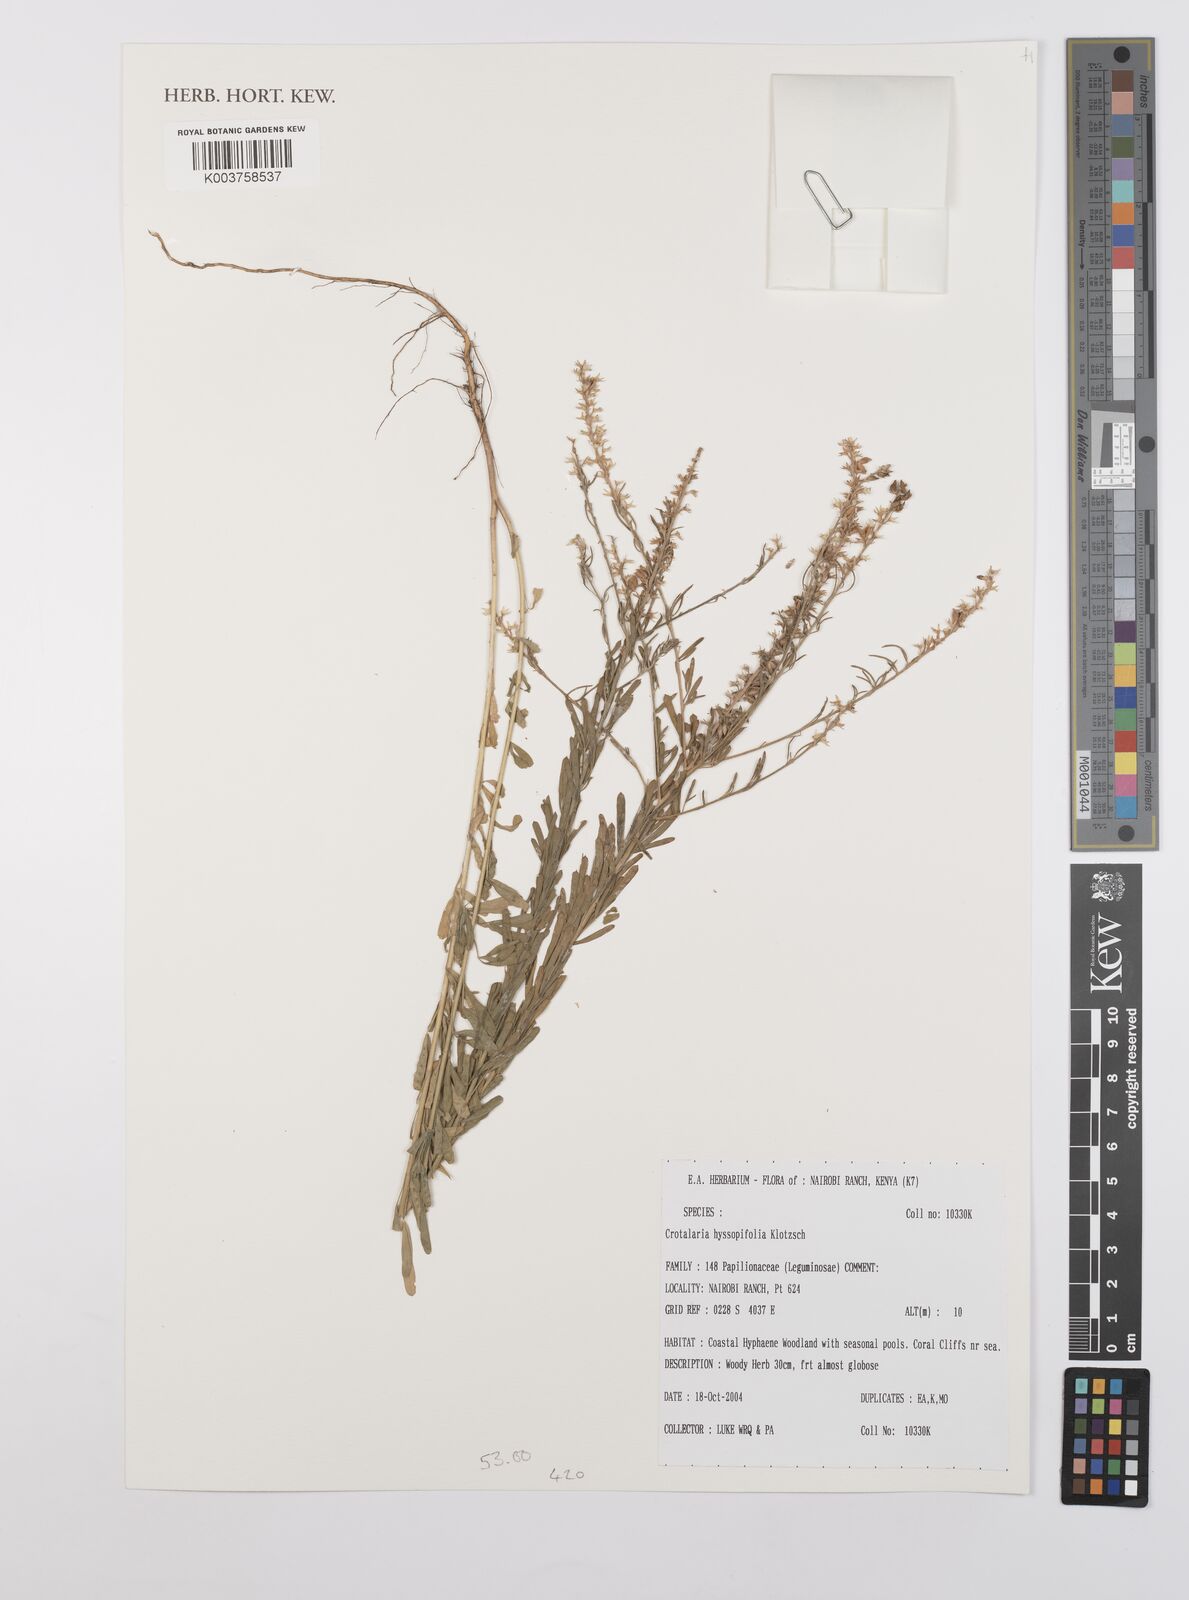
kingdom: Plantae
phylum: Tracheophyta
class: Magnoliopsida
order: Fabales
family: Fabaceae
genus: Crotalaria
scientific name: Crotalaria hyssopifolia
